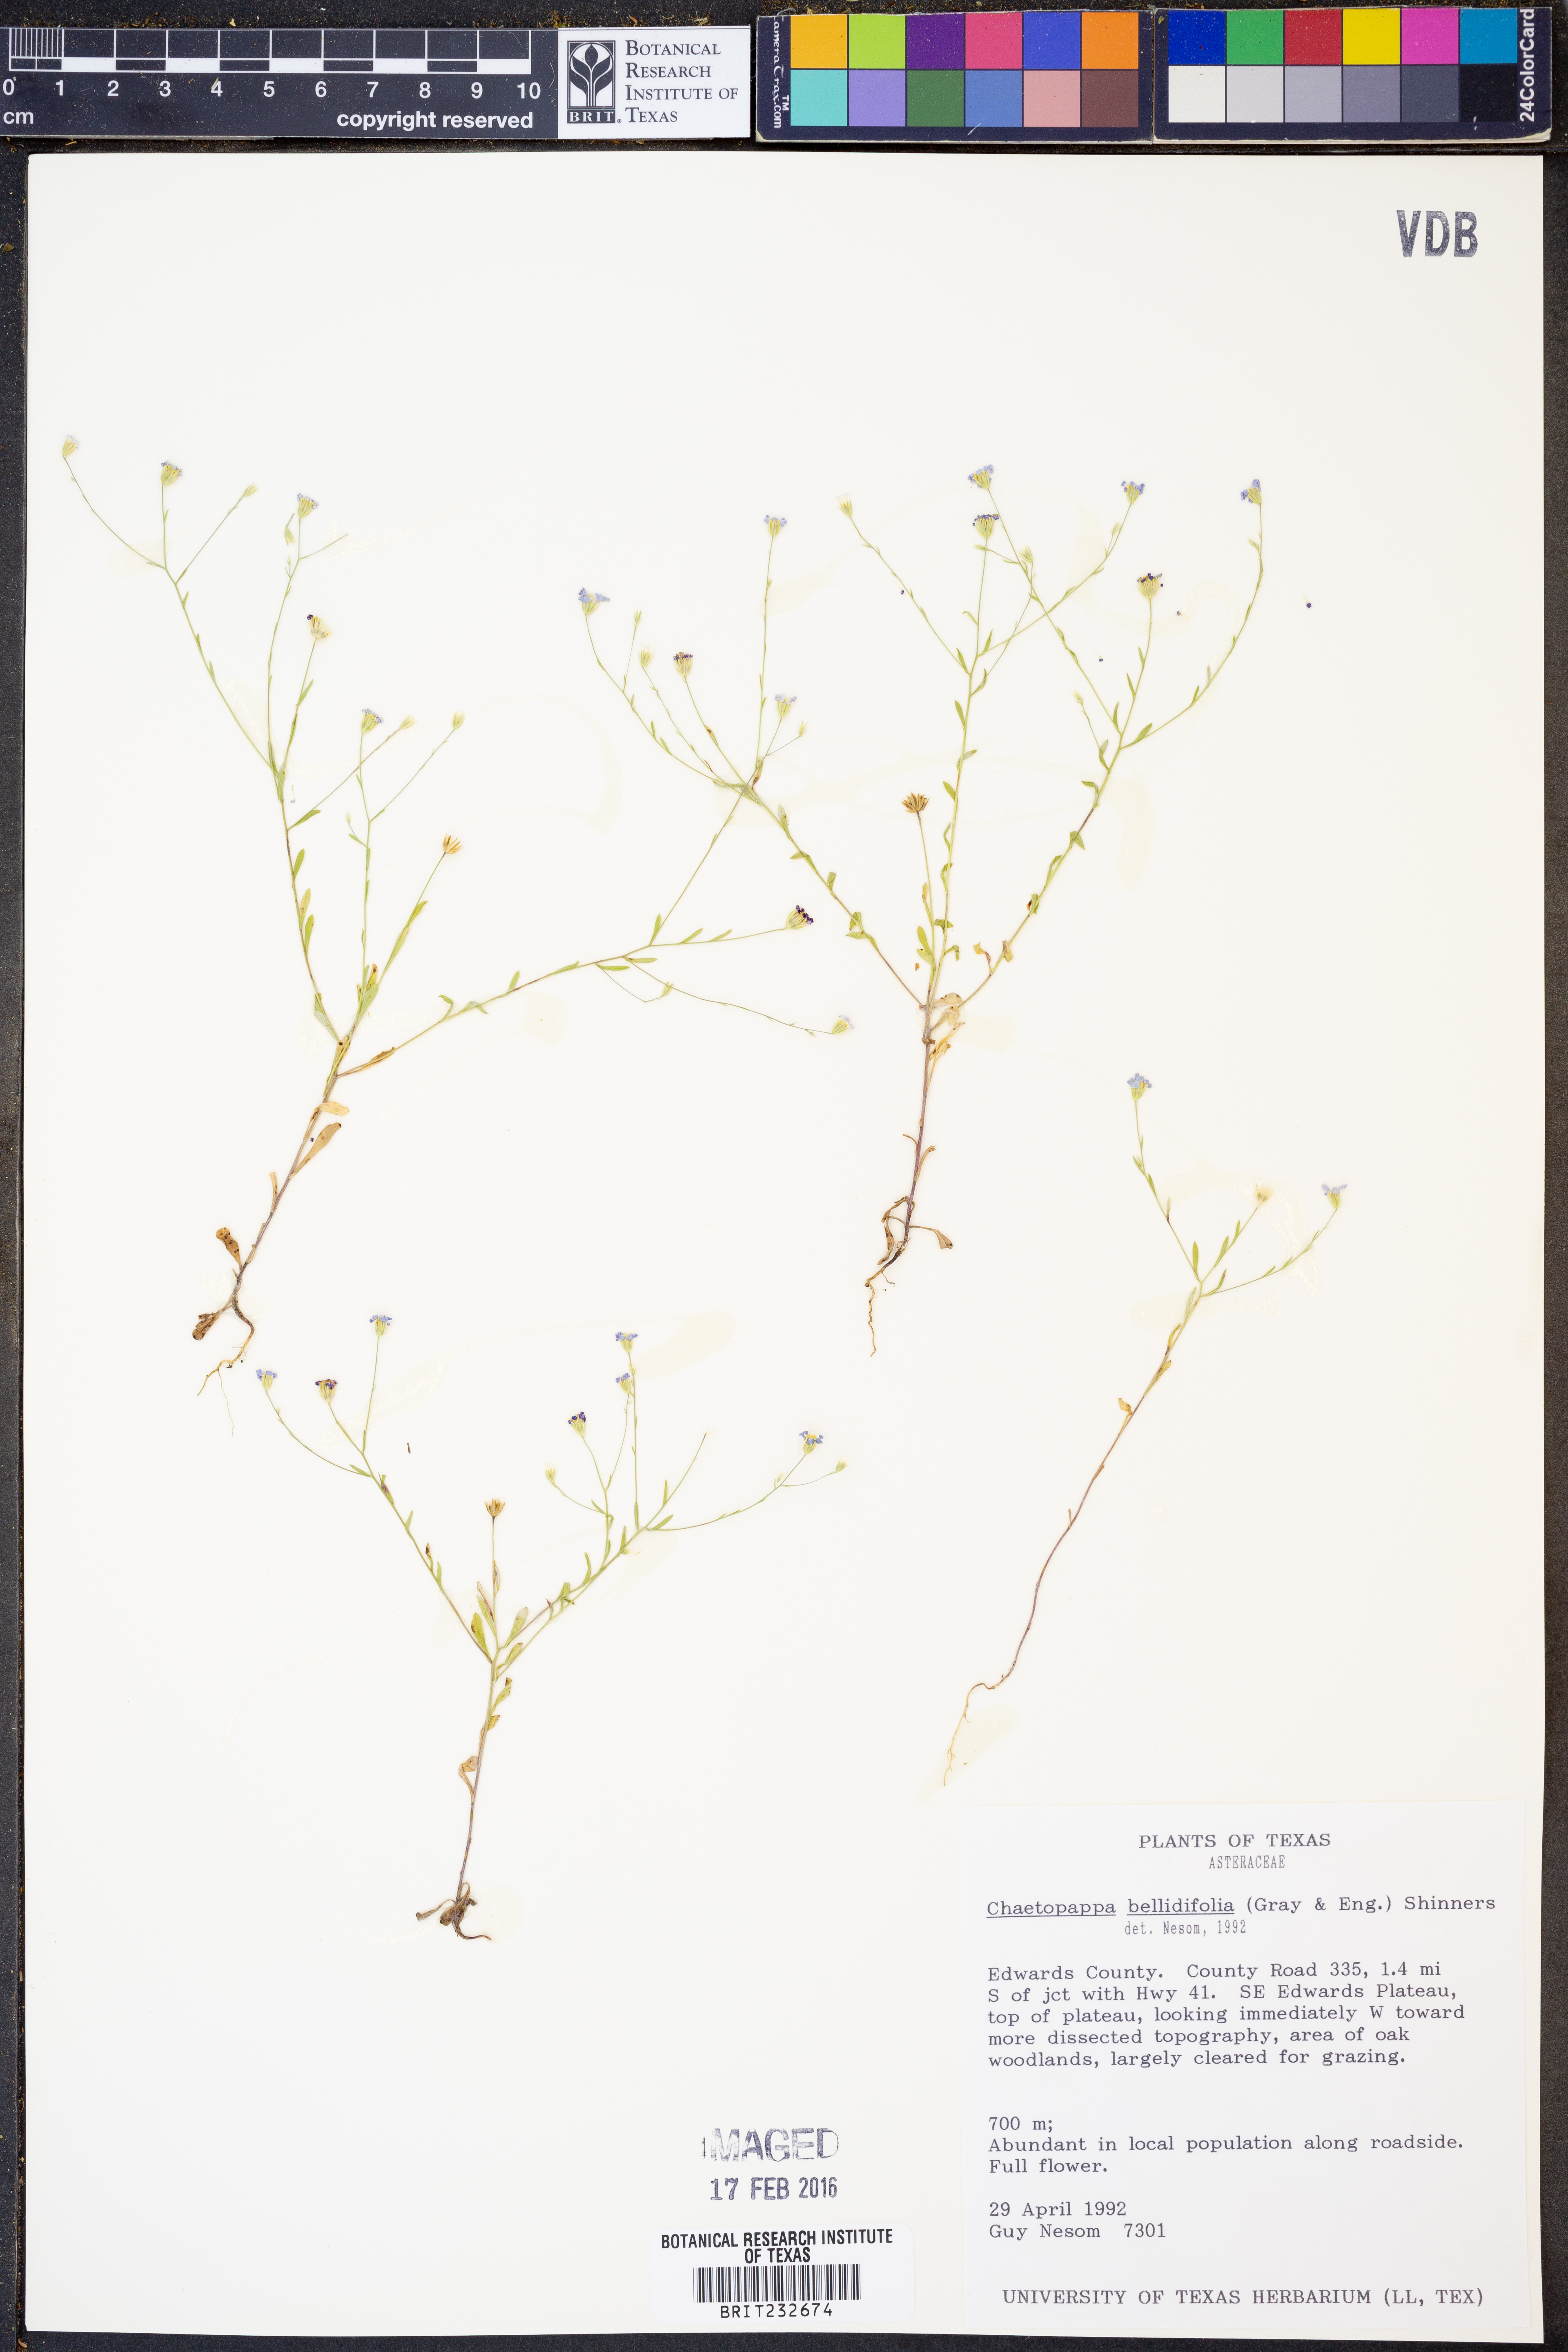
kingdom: Plantae
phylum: Tracheophyta
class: Magnoliopsida
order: Asterales
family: Asteraceae
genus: Chaetopappa
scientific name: Chaetopappa bellidifolia
